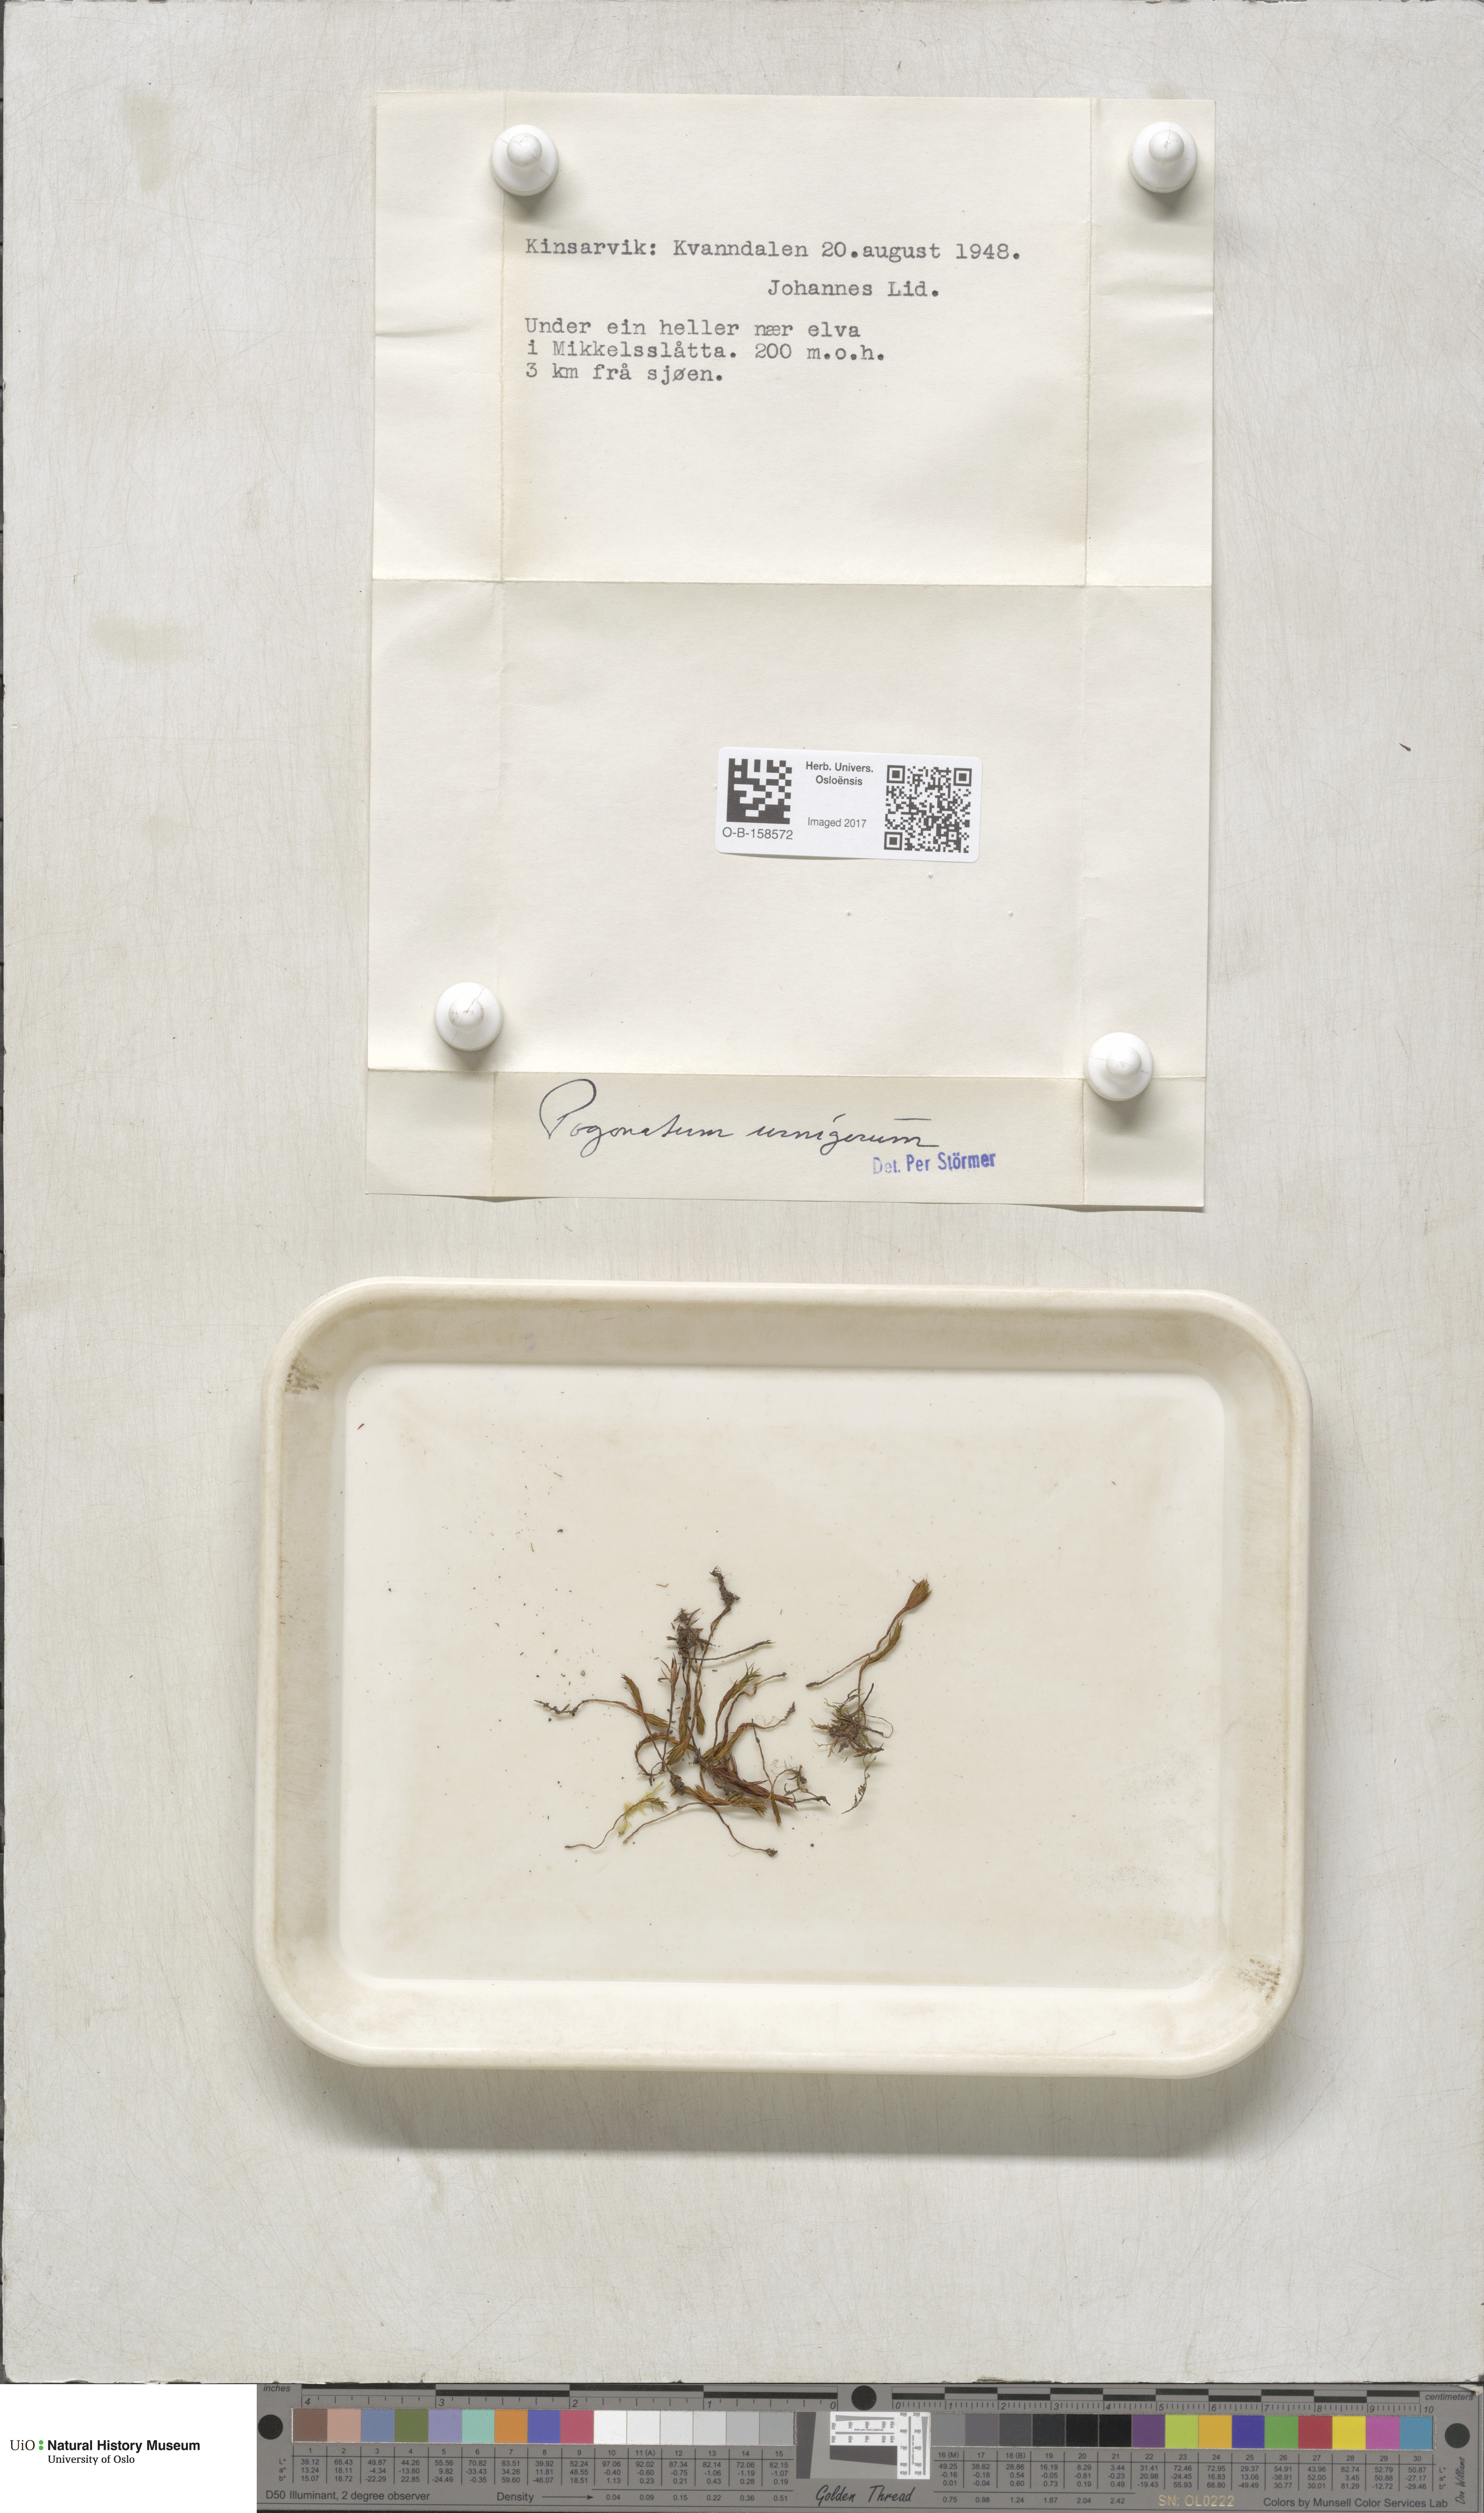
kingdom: Plantae
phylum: Bryophyta
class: Polytrichopsida
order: Polytrichales
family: Polytrichaceae
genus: Pogonatum
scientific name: Pogonatum urnigerum
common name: Urn hair moss
